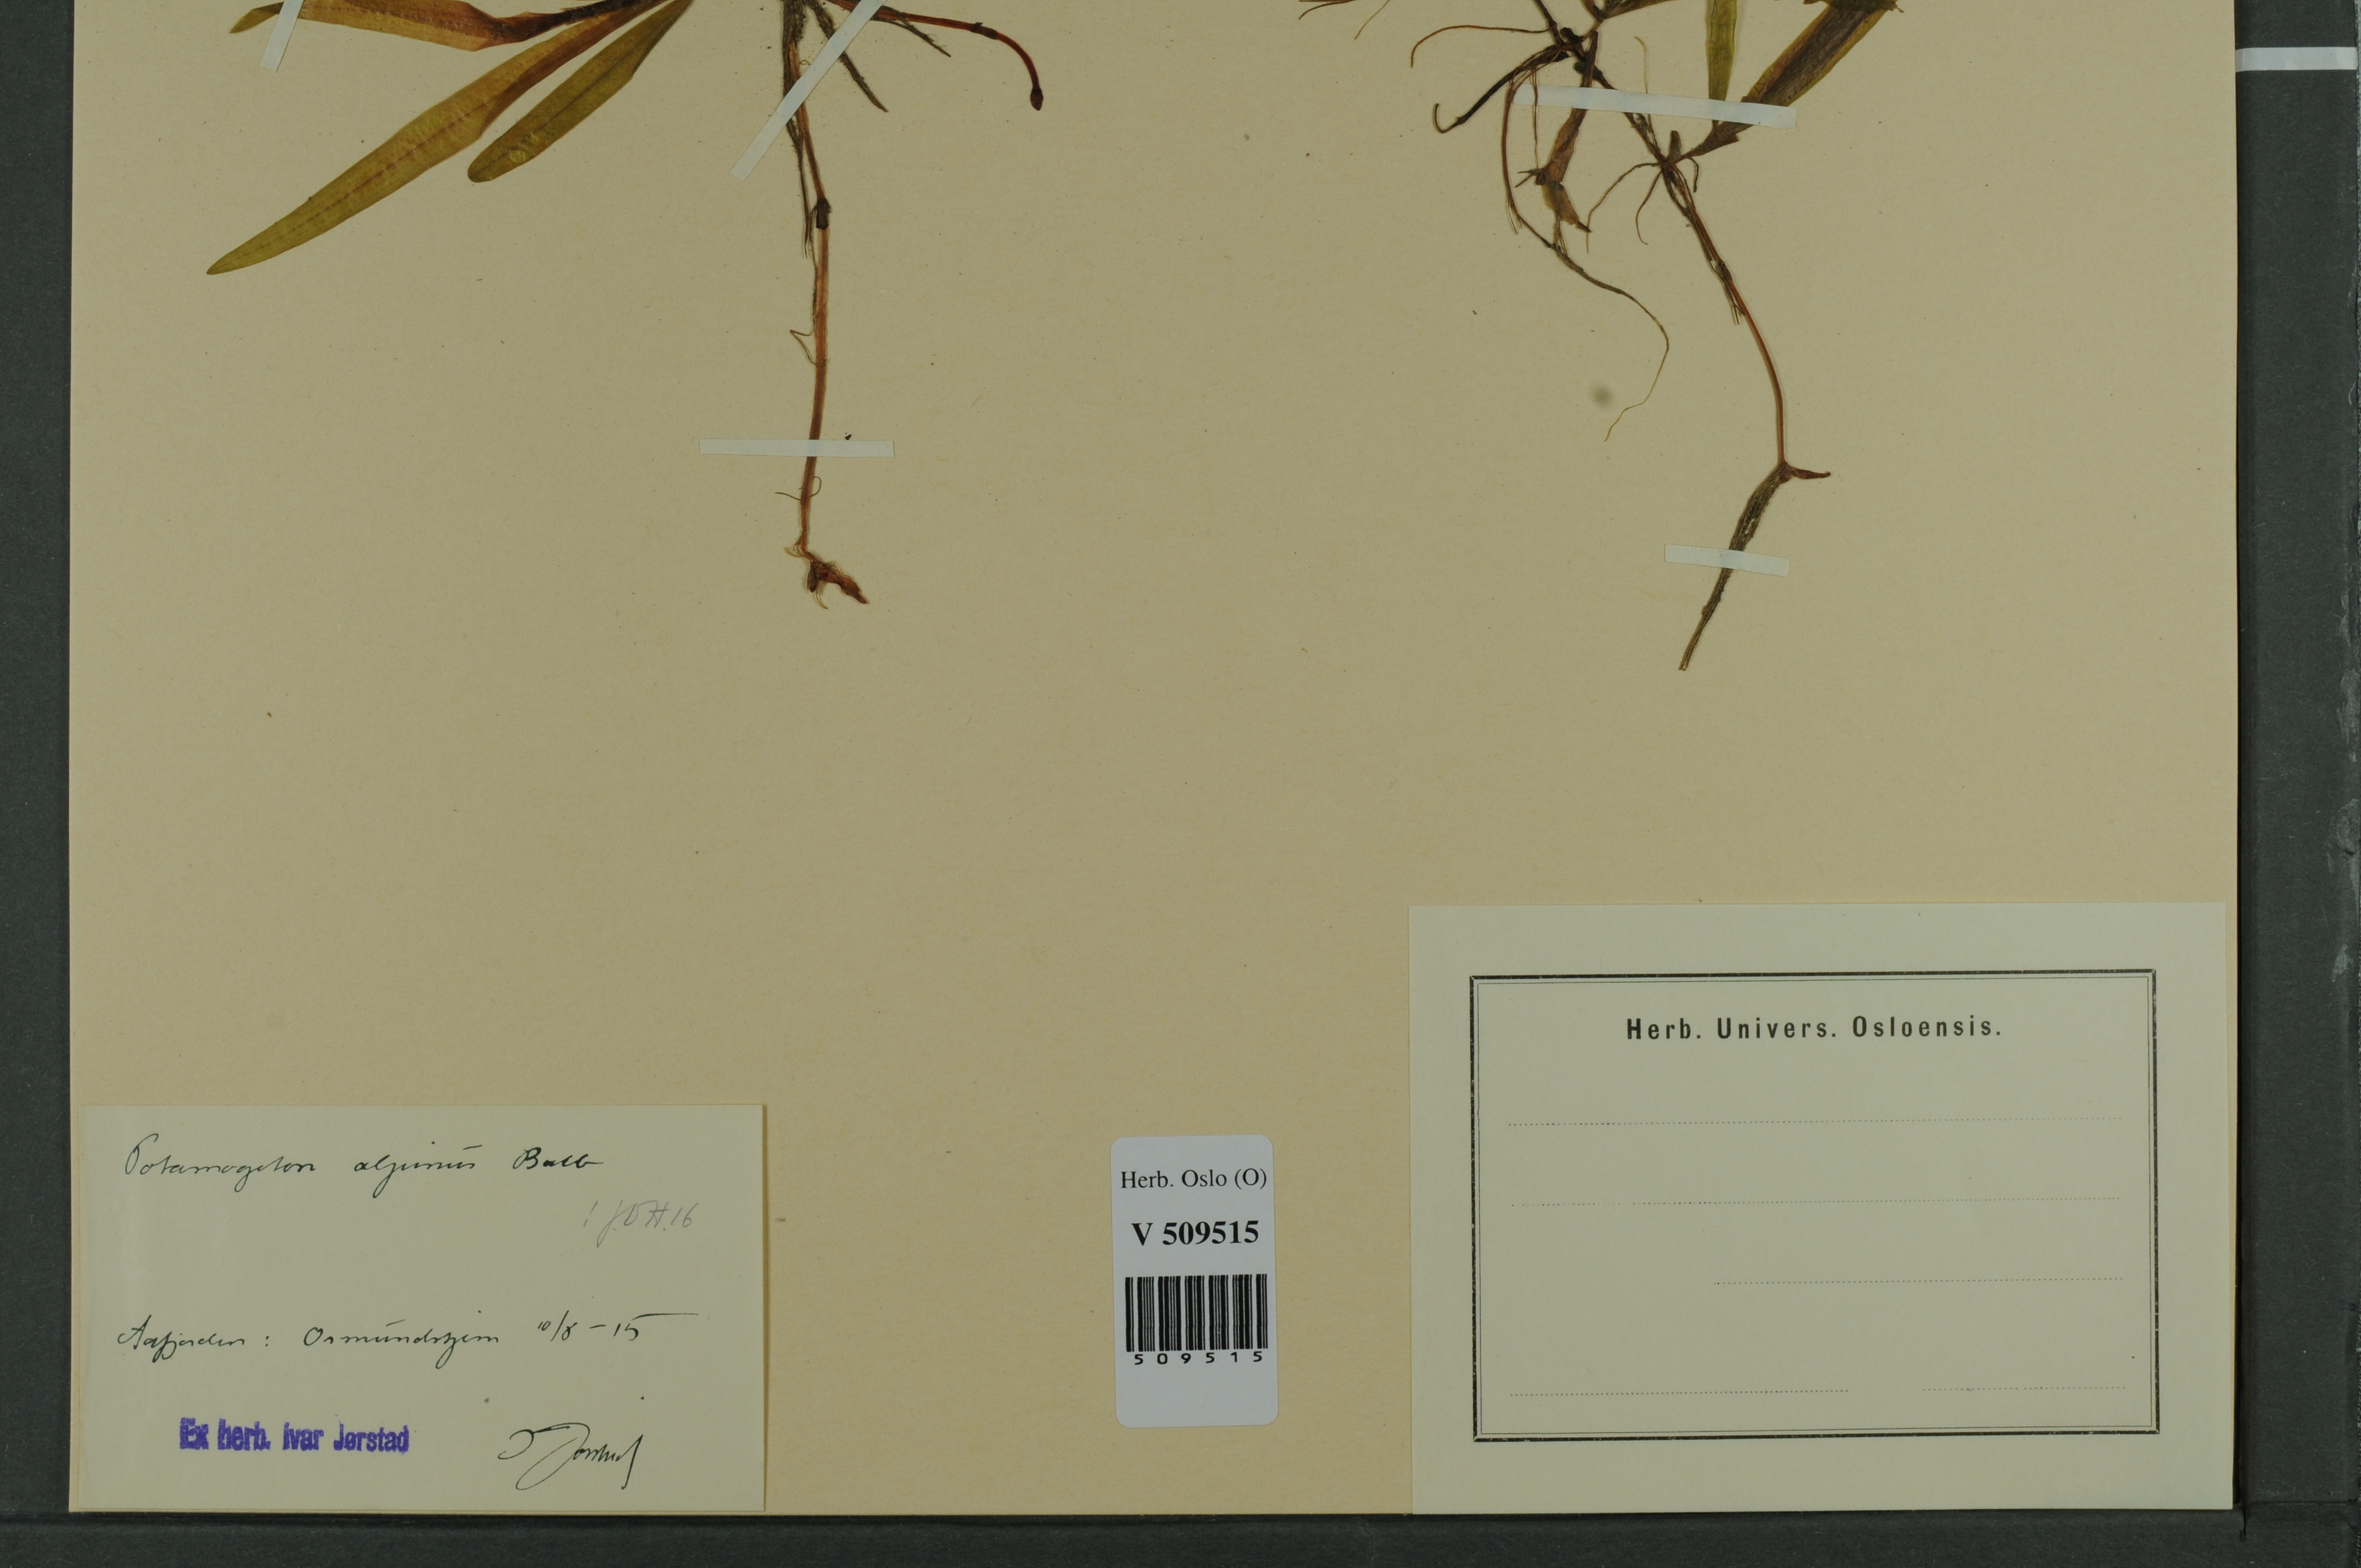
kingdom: Plantae
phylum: Tracheophyta
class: Liliopsida
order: Alismatales
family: Potamogetonaceae
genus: Potamogeton
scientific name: Potamogeton alpinus
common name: Red pondweed
